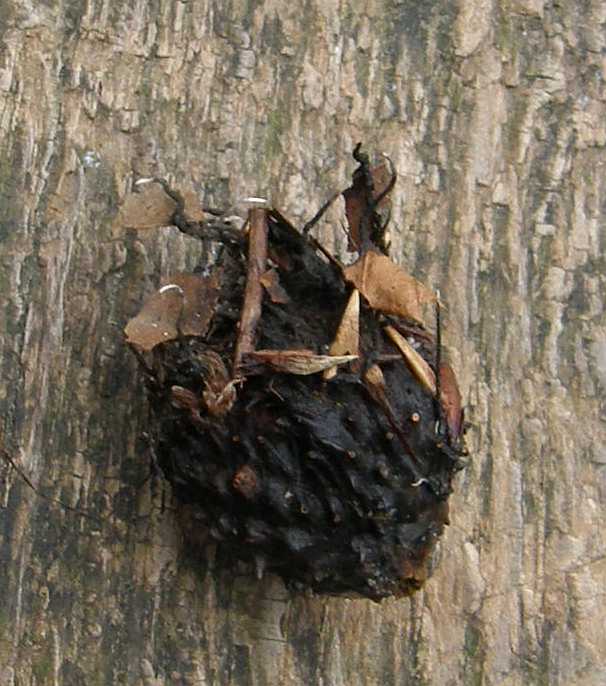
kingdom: Fungi
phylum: Ascomycota
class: Sordariomycetes
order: Xylariales
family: Xylariaceae
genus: Xylaria
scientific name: Xylaria carpophila
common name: bogskål-stødsvamp
